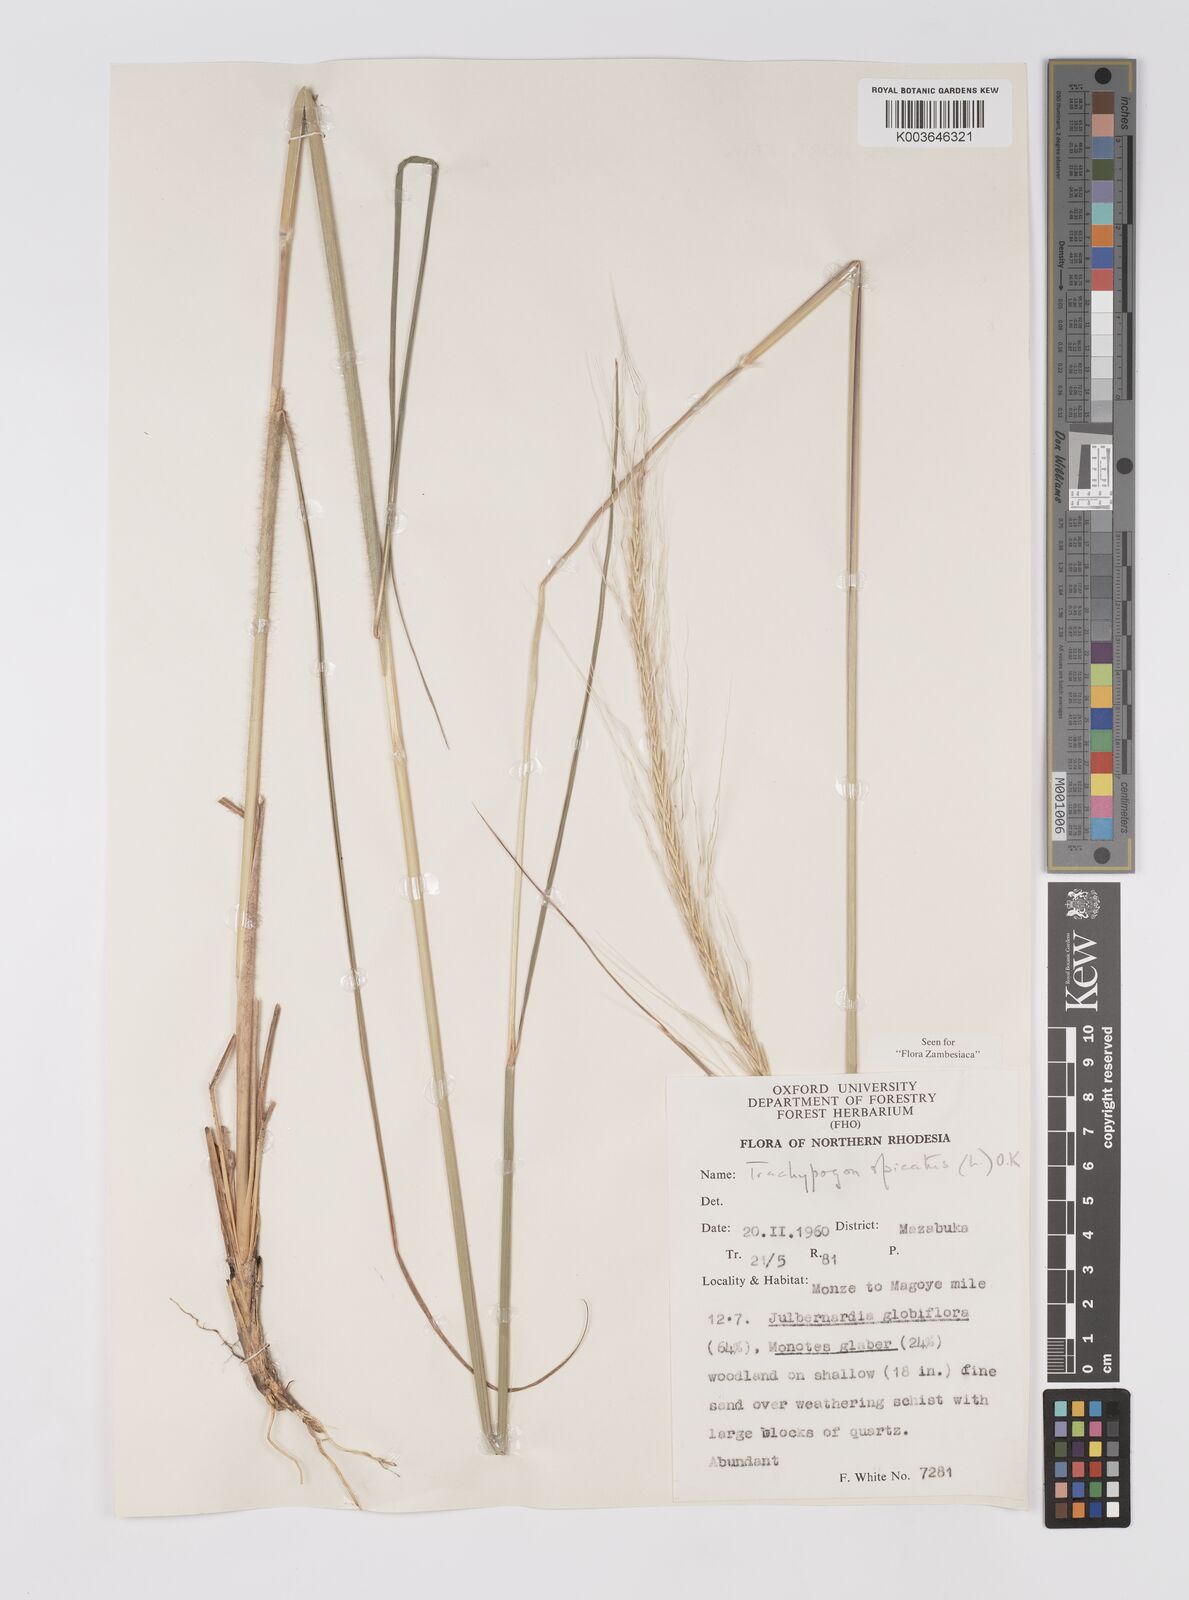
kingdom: Plantae
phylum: Tracheophyta
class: Liliopsida
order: Poales
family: Poaceae
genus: Trachypogon
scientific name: Trachypogon spicatus
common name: Crinkle-awn
